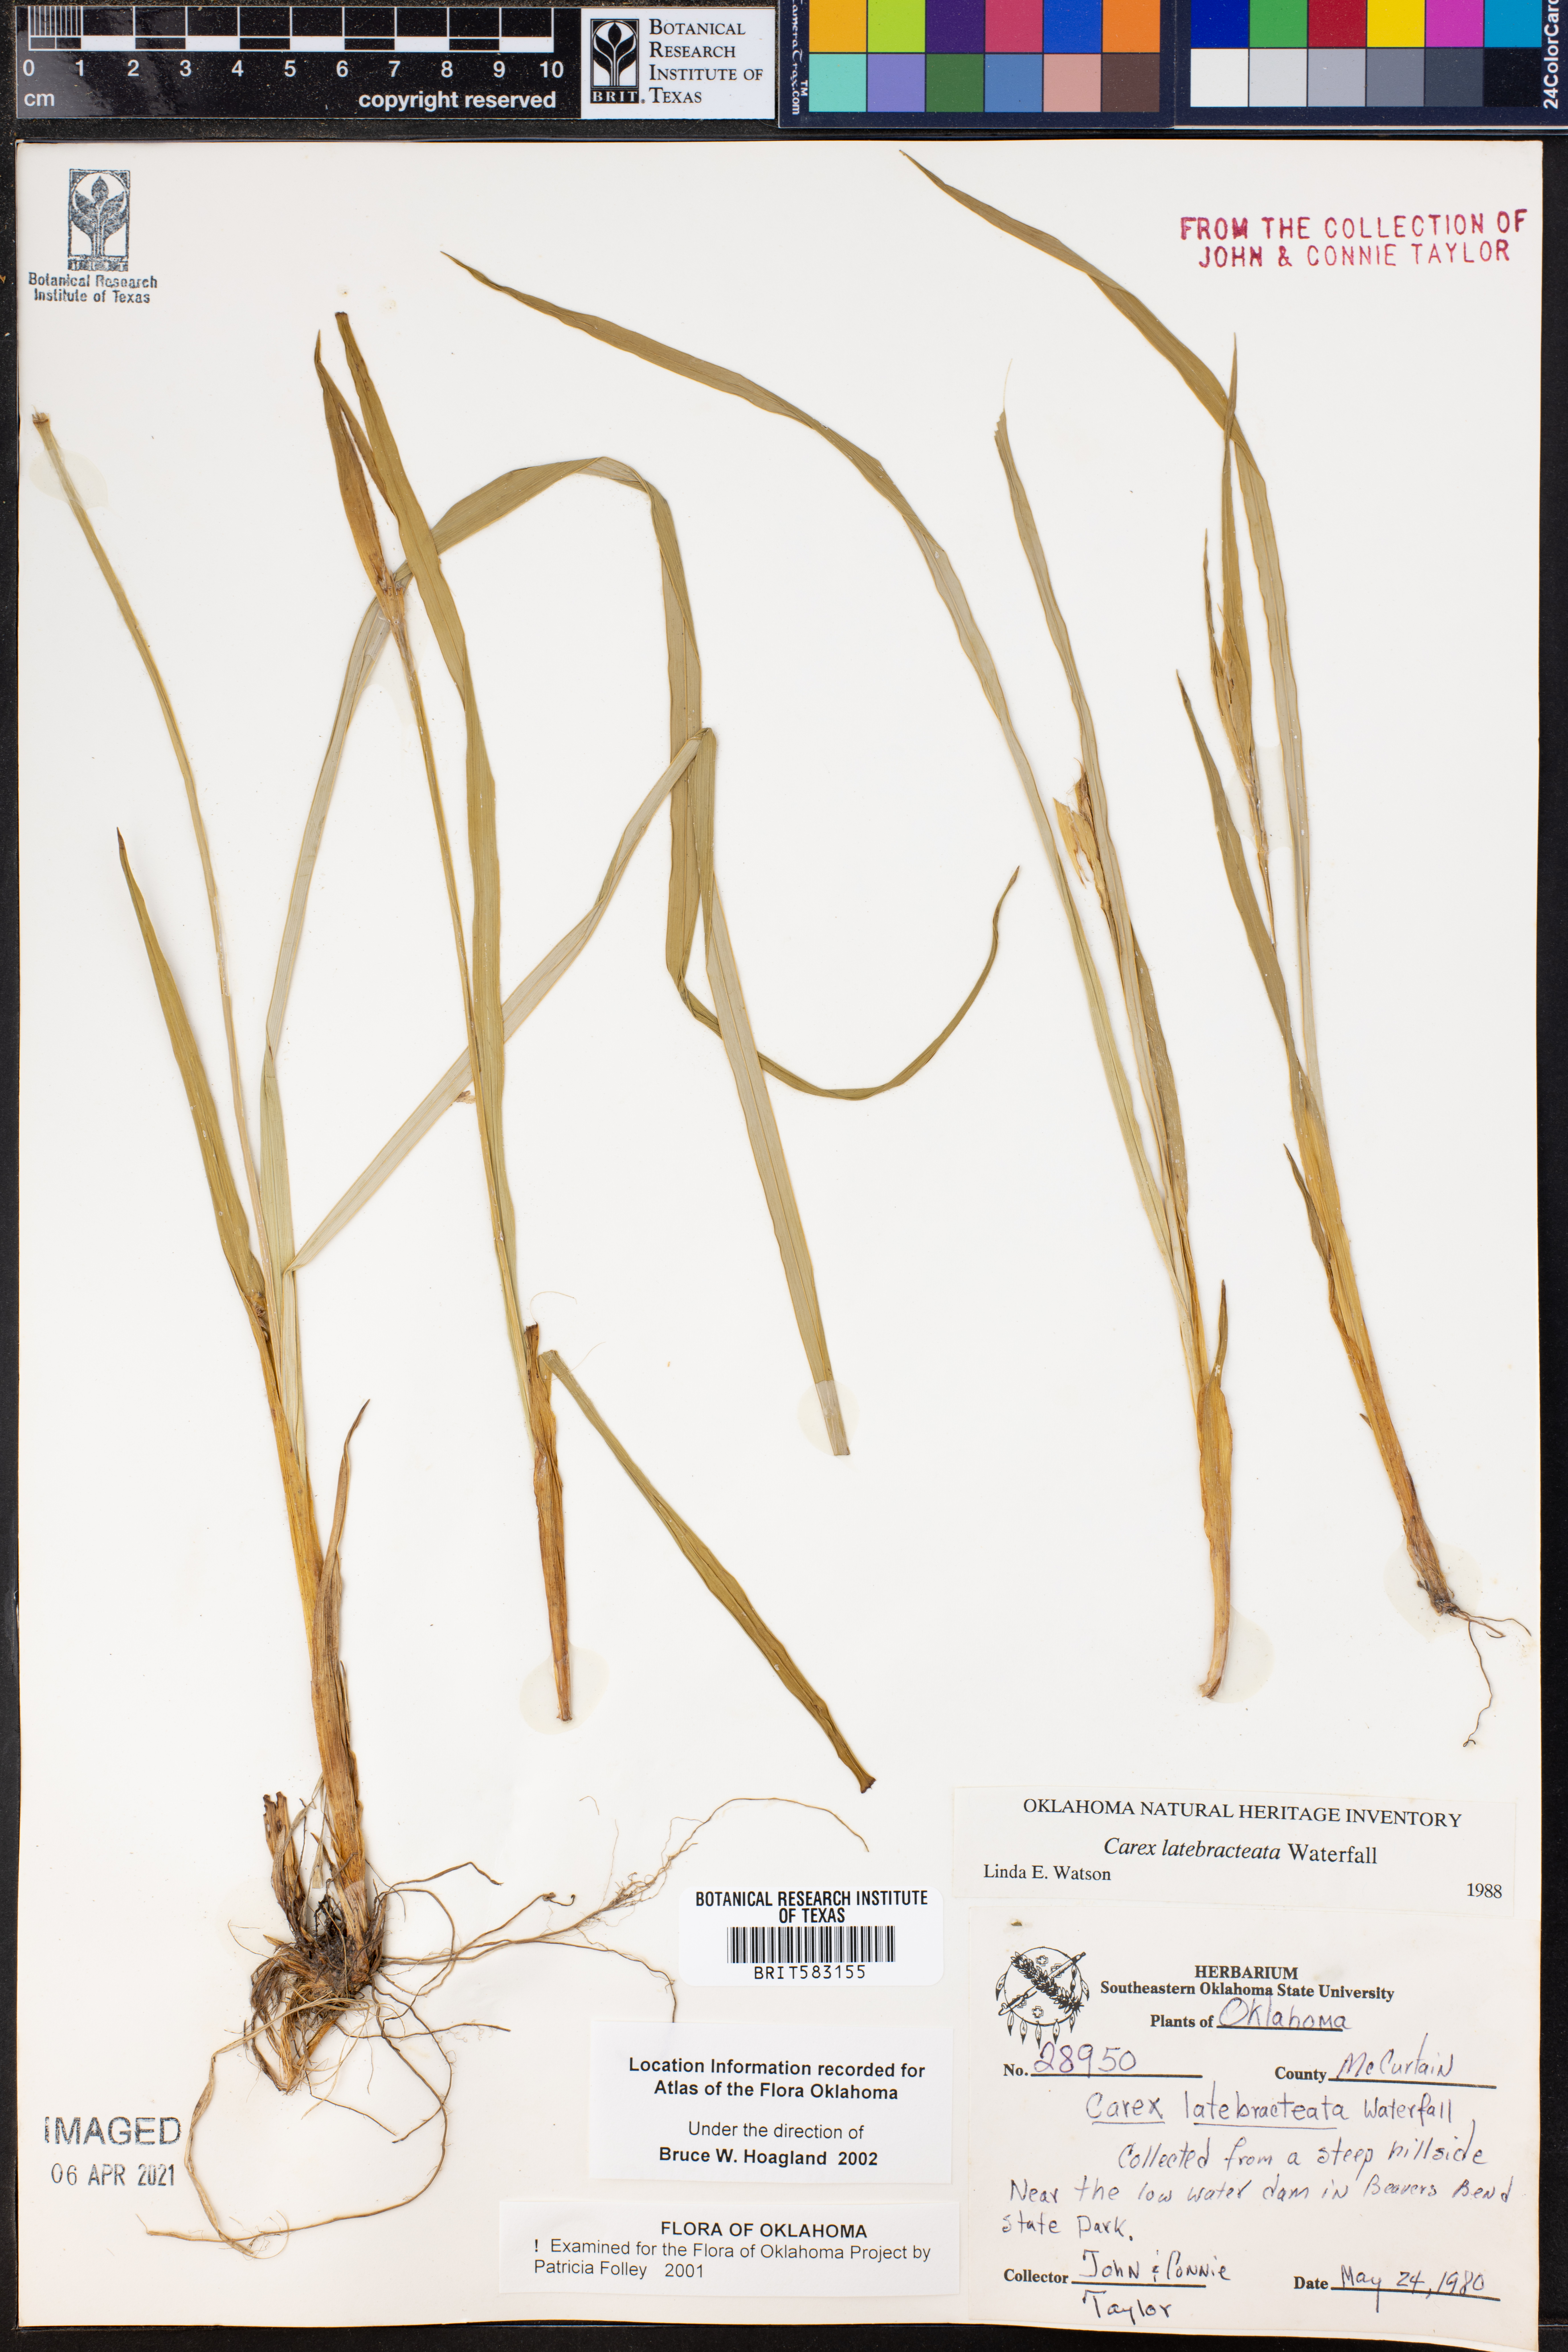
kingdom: Plantae
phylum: Tracheophyta
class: Liliopsida
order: Poales
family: Cyperaceae
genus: Carex
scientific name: Carex latebracteata
